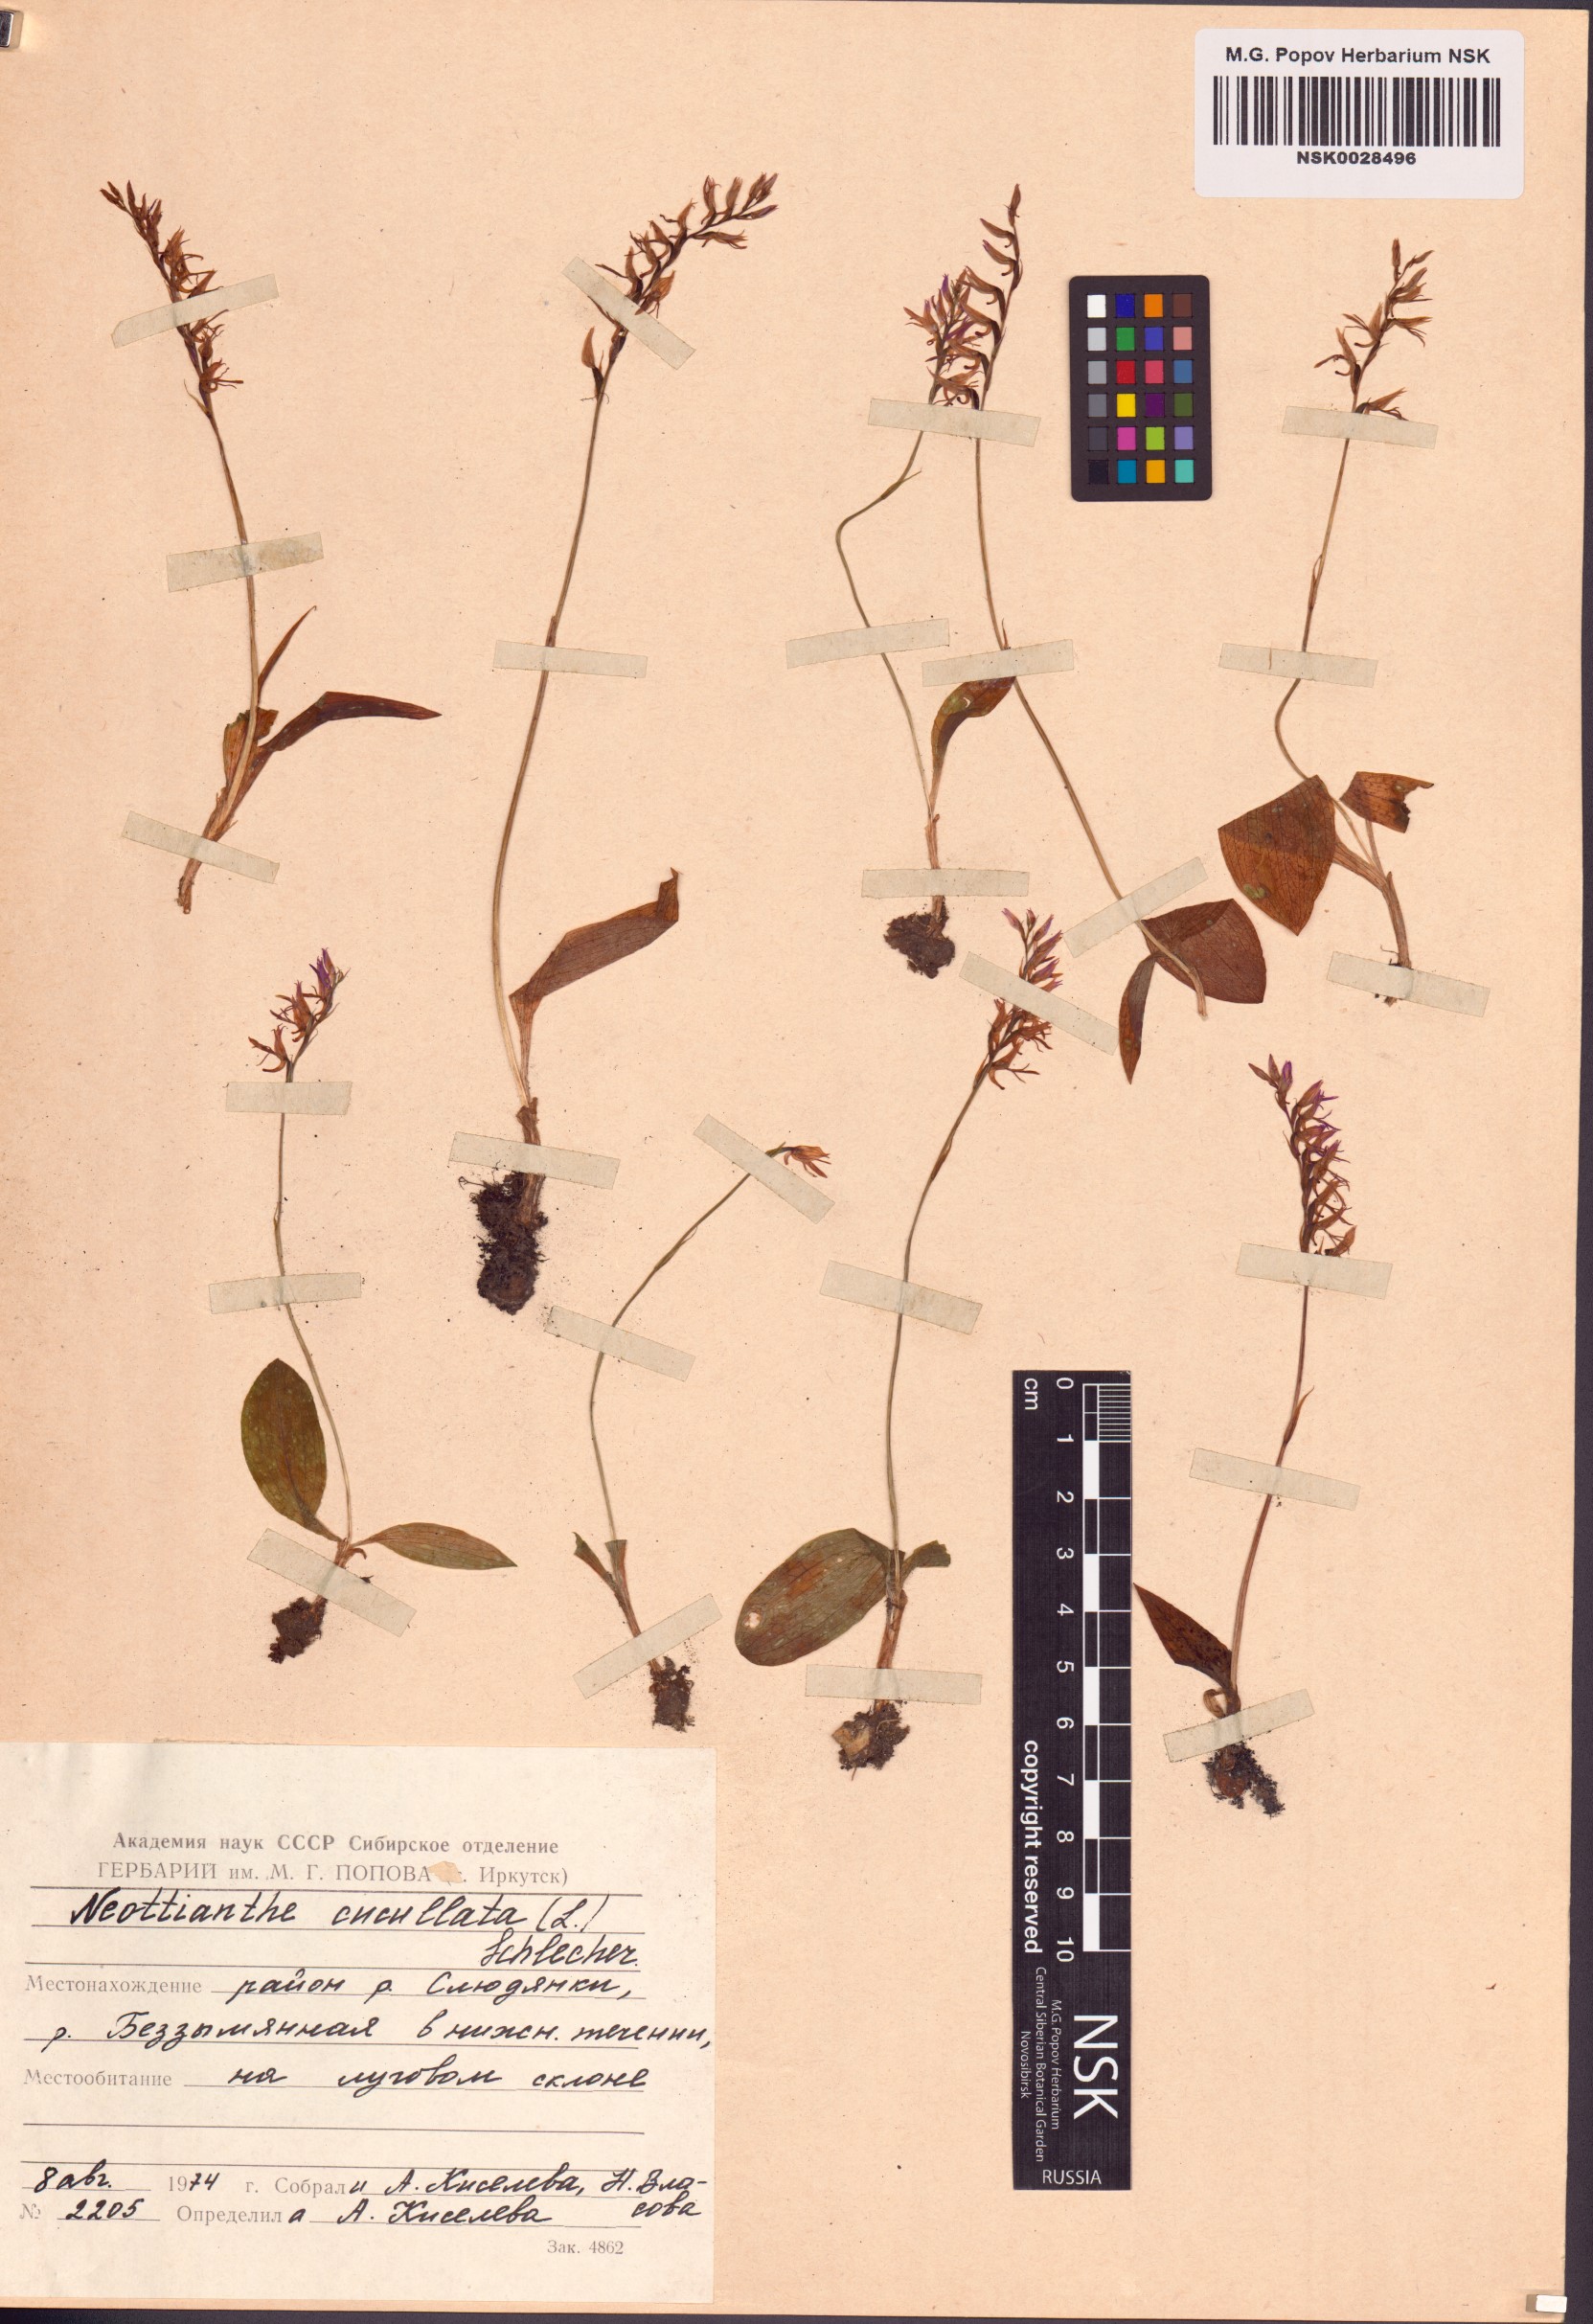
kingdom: Plantae
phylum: Tracheophyta
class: Liliopsida
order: Asparagales
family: Orchidaceae
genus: Hemipilia
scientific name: Hemipilia cucullata
